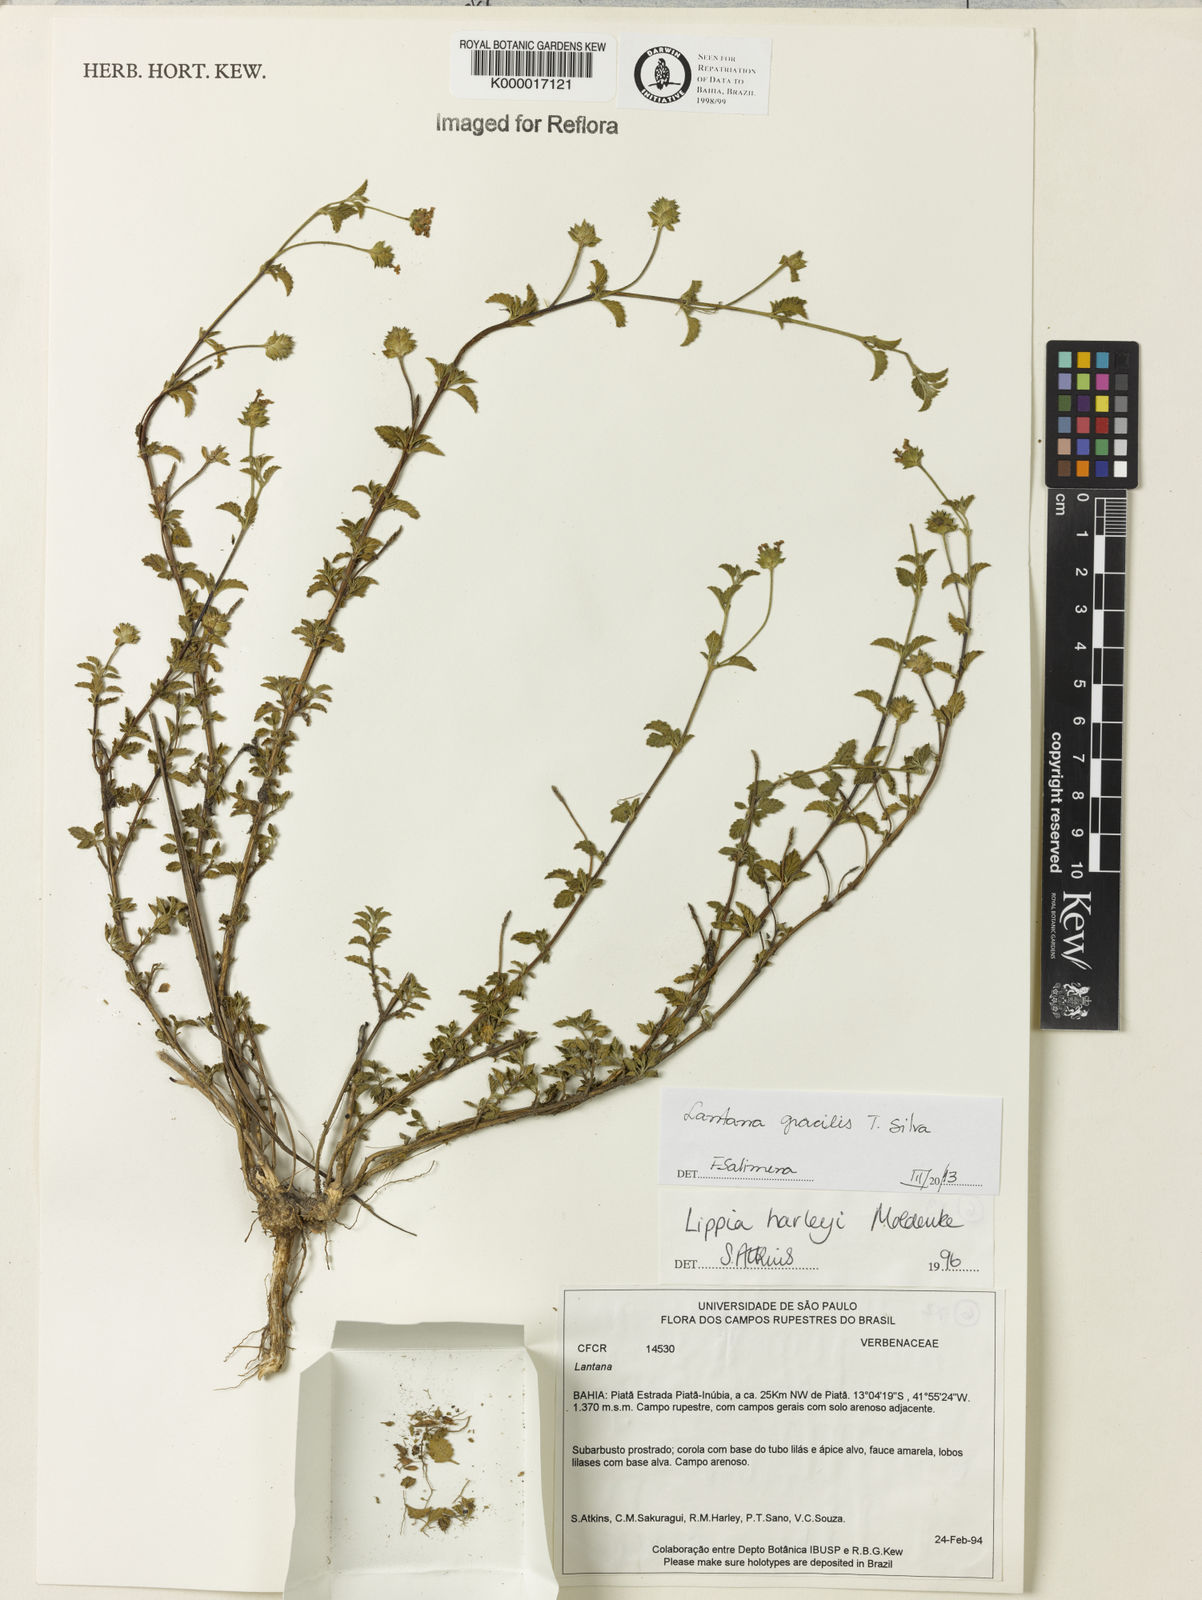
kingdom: Plantae
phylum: Tracheophyta
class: Magnoliopsida
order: Lamiales
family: Verbenaceae
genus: Lippia
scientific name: Lippia harleyi
